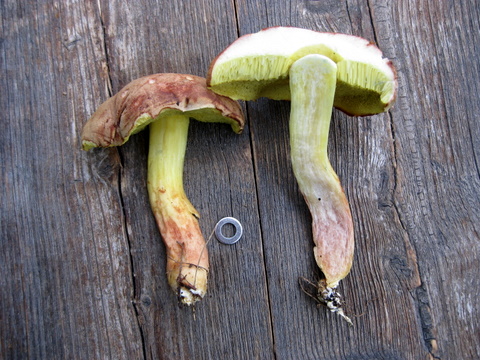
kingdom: Fungi
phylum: Basidiomycota
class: Agaricomycetes
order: Boletales
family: Boletaceae
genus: Xerocomus
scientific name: Xerocomus ferrugineus
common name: vaskeskinds-rørhat
